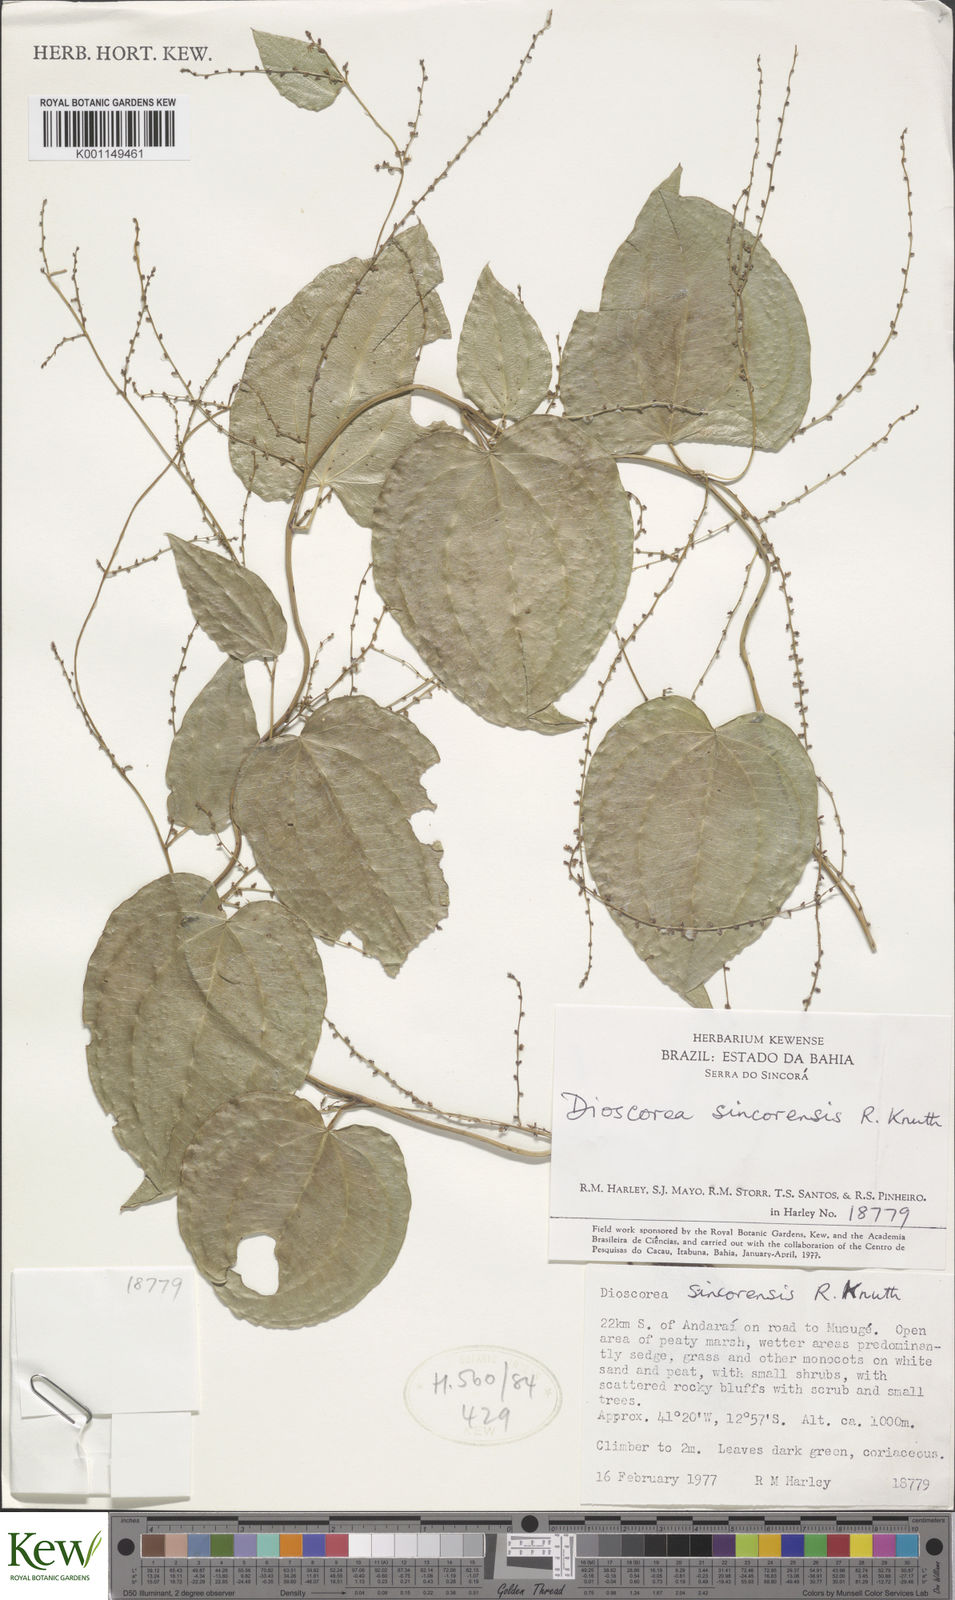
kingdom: Plantae
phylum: Tracheophyta
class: Liliopsida
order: Dioscoreales
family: Dioscoreaceae
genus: Dioscorea
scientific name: Dioscorea sincorensis
